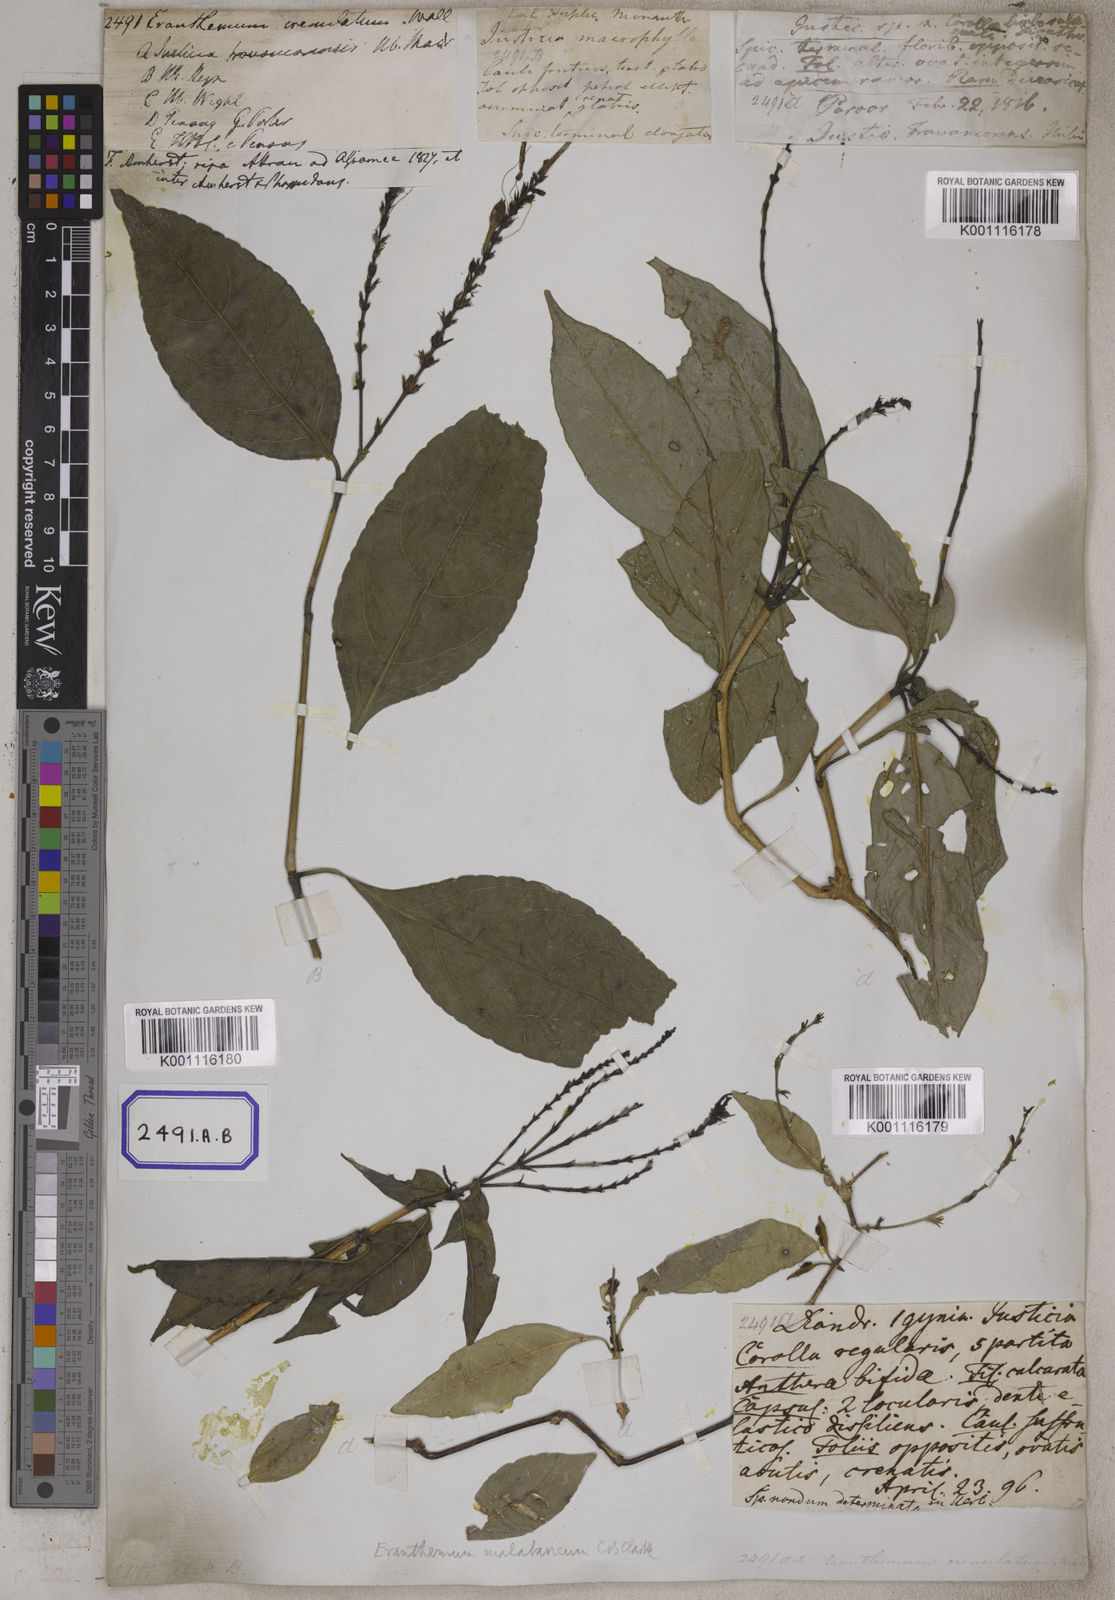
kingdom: Plantae
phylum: Tracheophyta
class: Magnoliopsida
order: Lamiales
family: Acanthaceae
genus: Eranthemum
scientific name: Eranthemum
